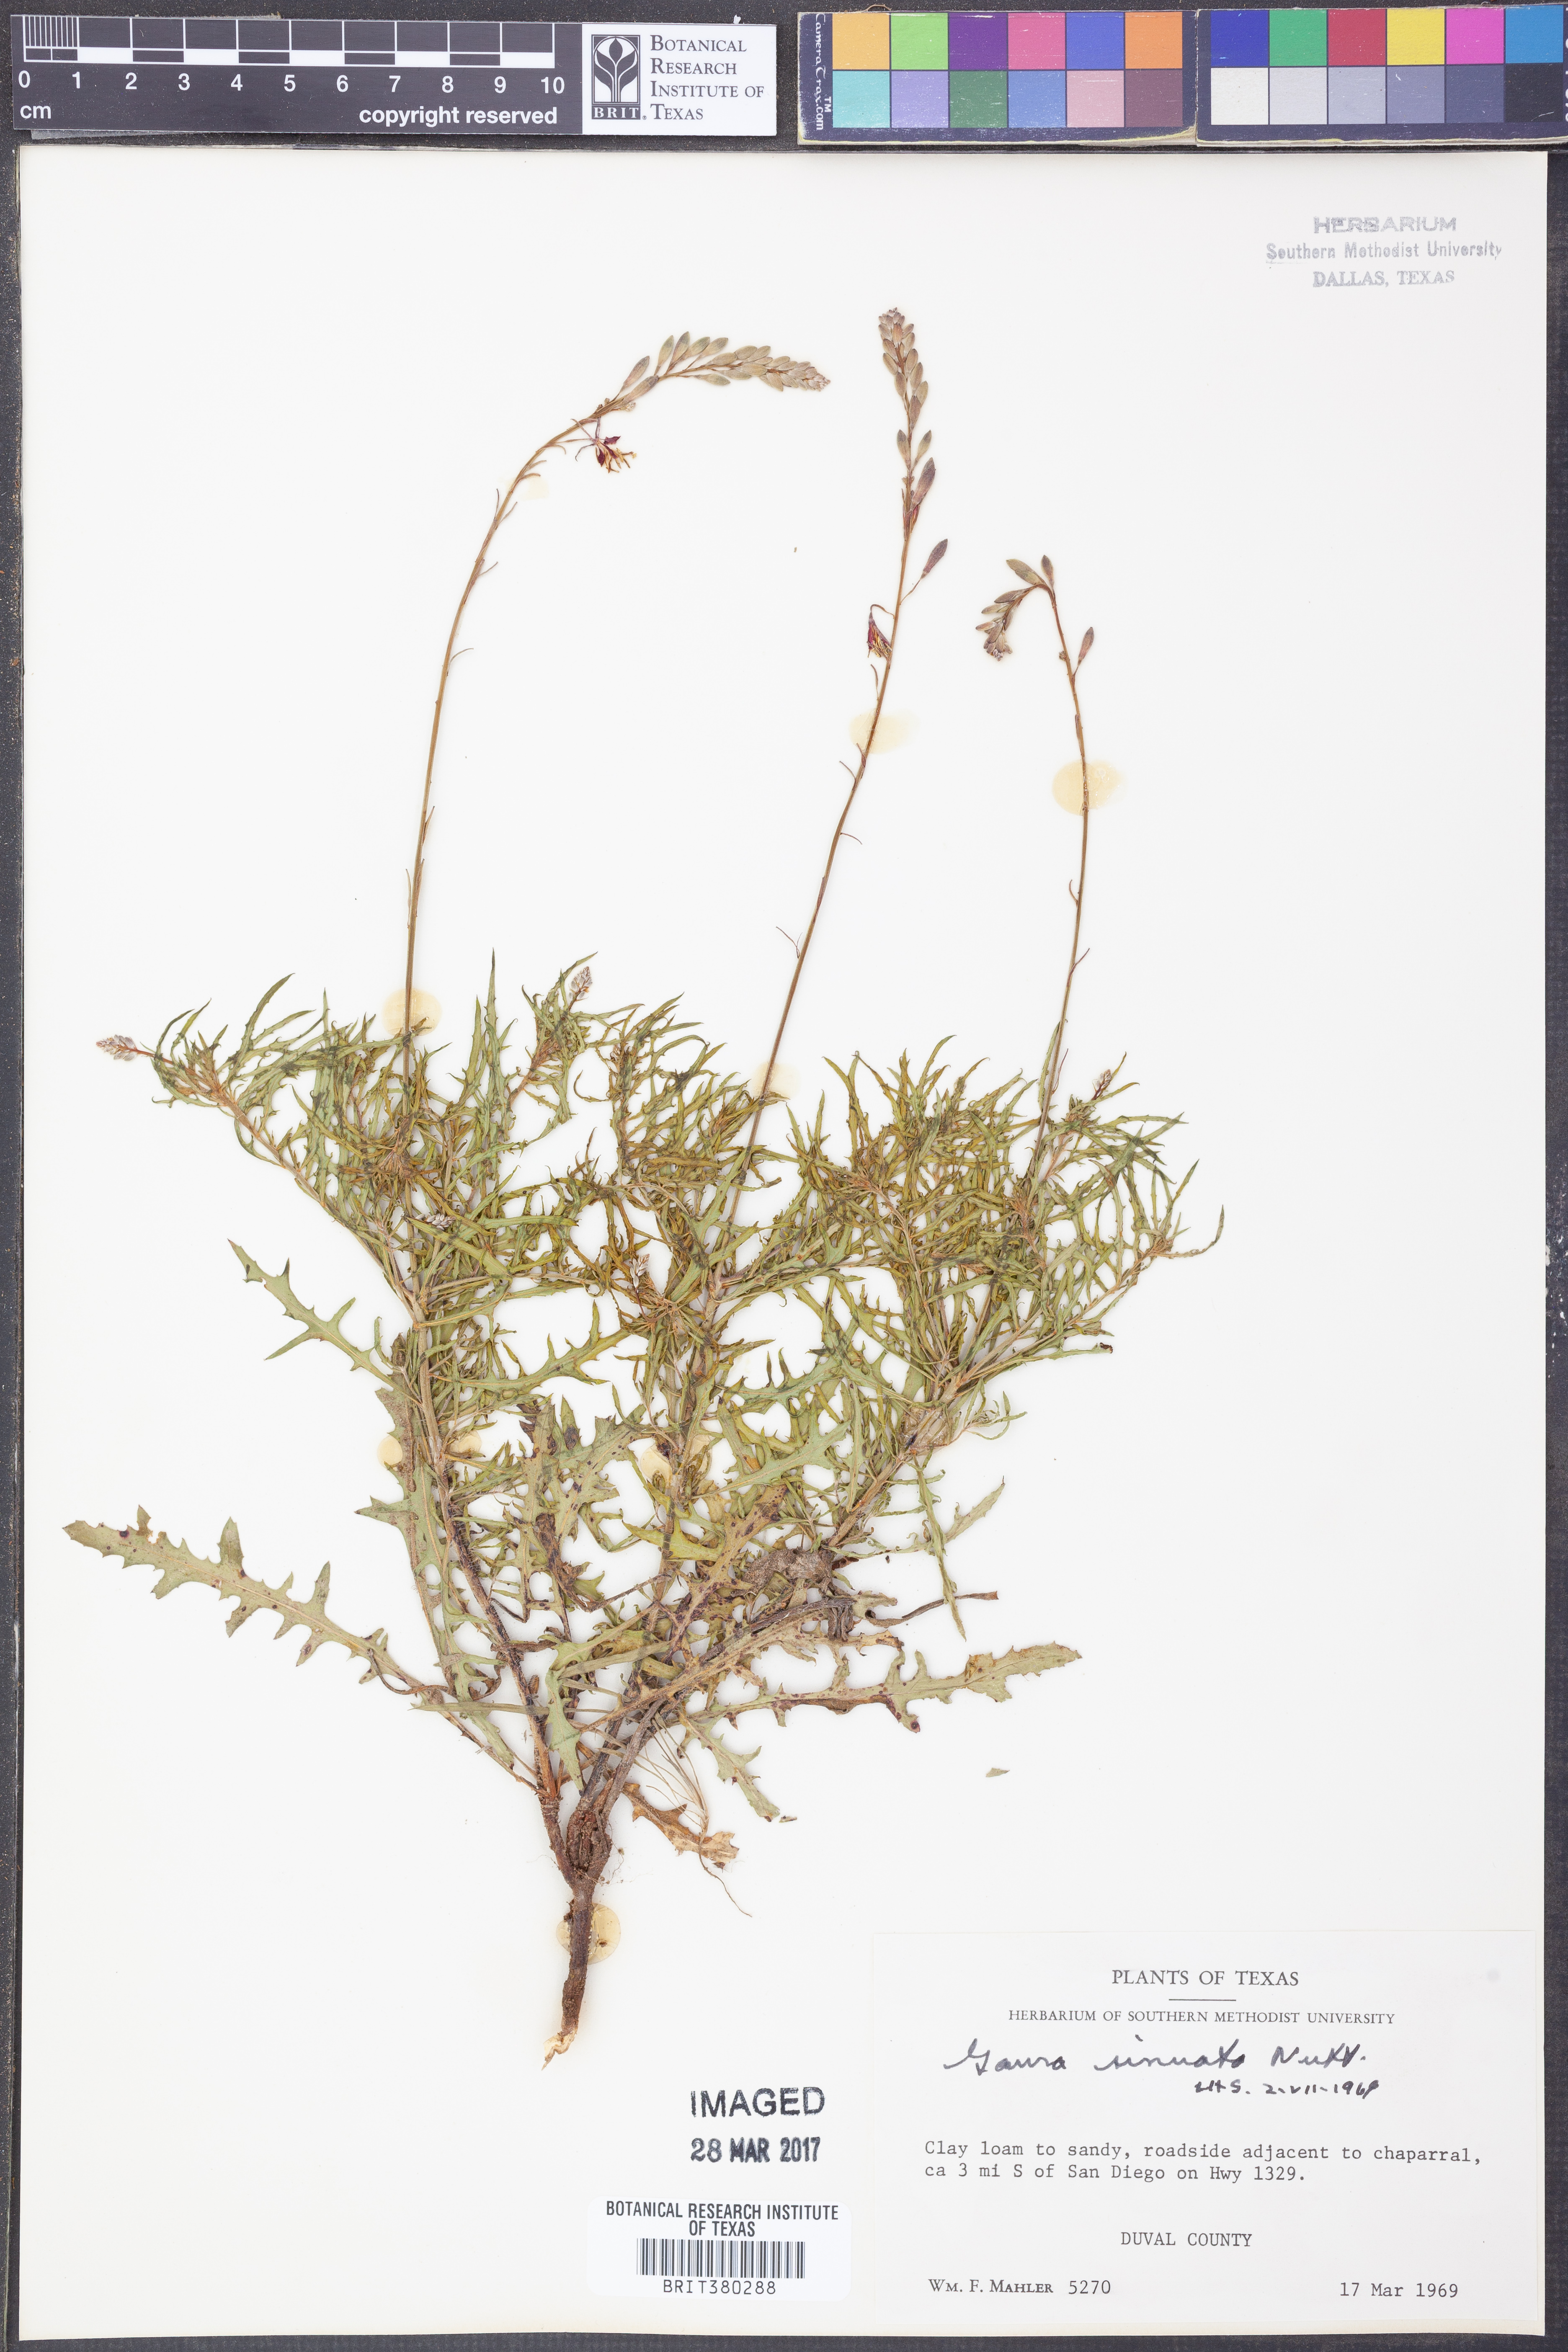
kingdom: Plantae
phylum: Tracheophyta
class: Magnoliopsida
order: Myrtales
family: Onagraceae
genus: Oenothera
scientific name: Oenothera sinuosa
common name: Wavyleaf beeblossom
